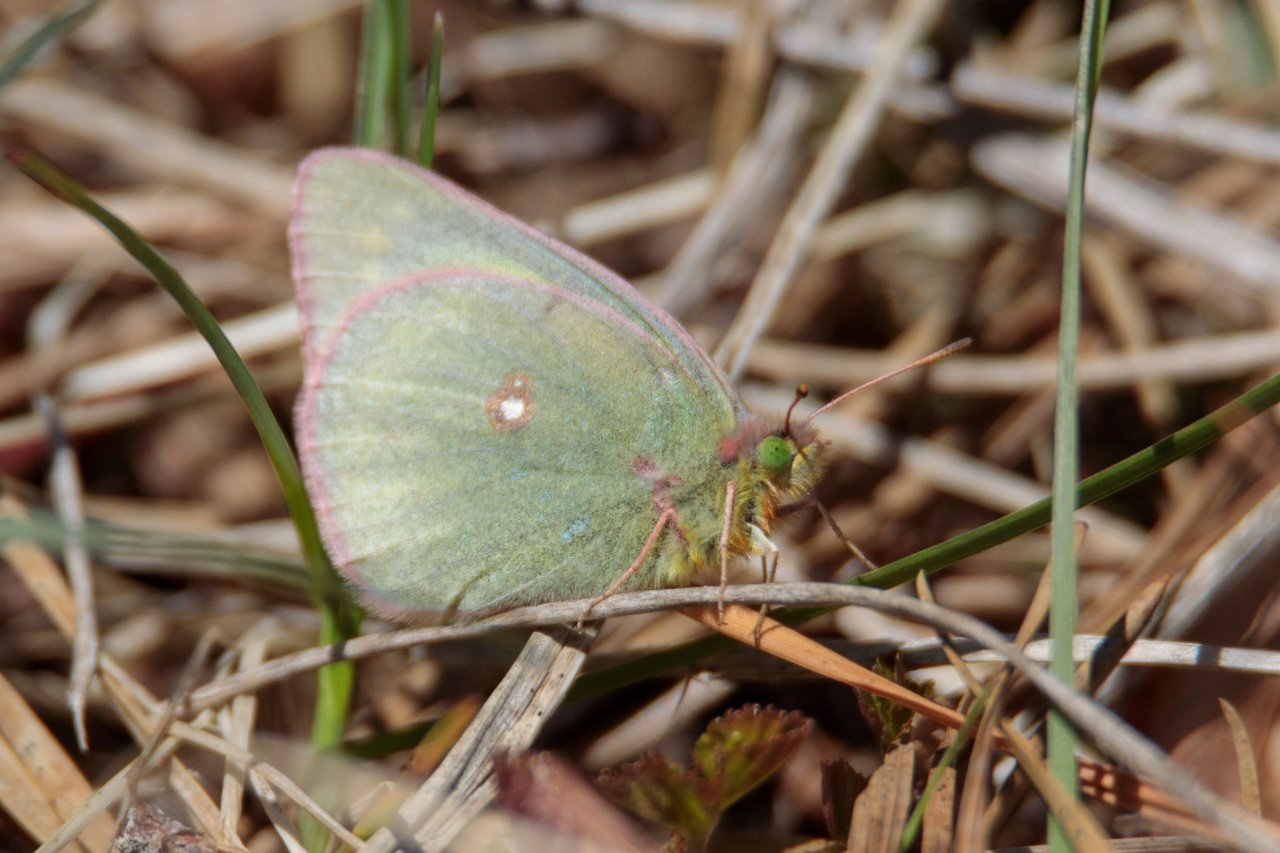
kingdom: Animalia
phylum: Arthropoda
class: Insecta
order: Lepidoptera
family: Pieridae
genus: Colias
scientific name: Colias philodice
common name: Clouded Sulphur
